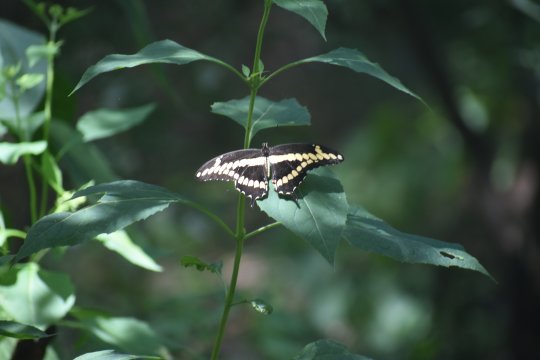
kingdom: Animalia
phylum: Arthropoda
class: Insecta
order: Lepidoptera
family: Papilionidae
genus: Papilio
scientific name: Papilio cresphontes
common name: Eastern Giant Swallowtail
